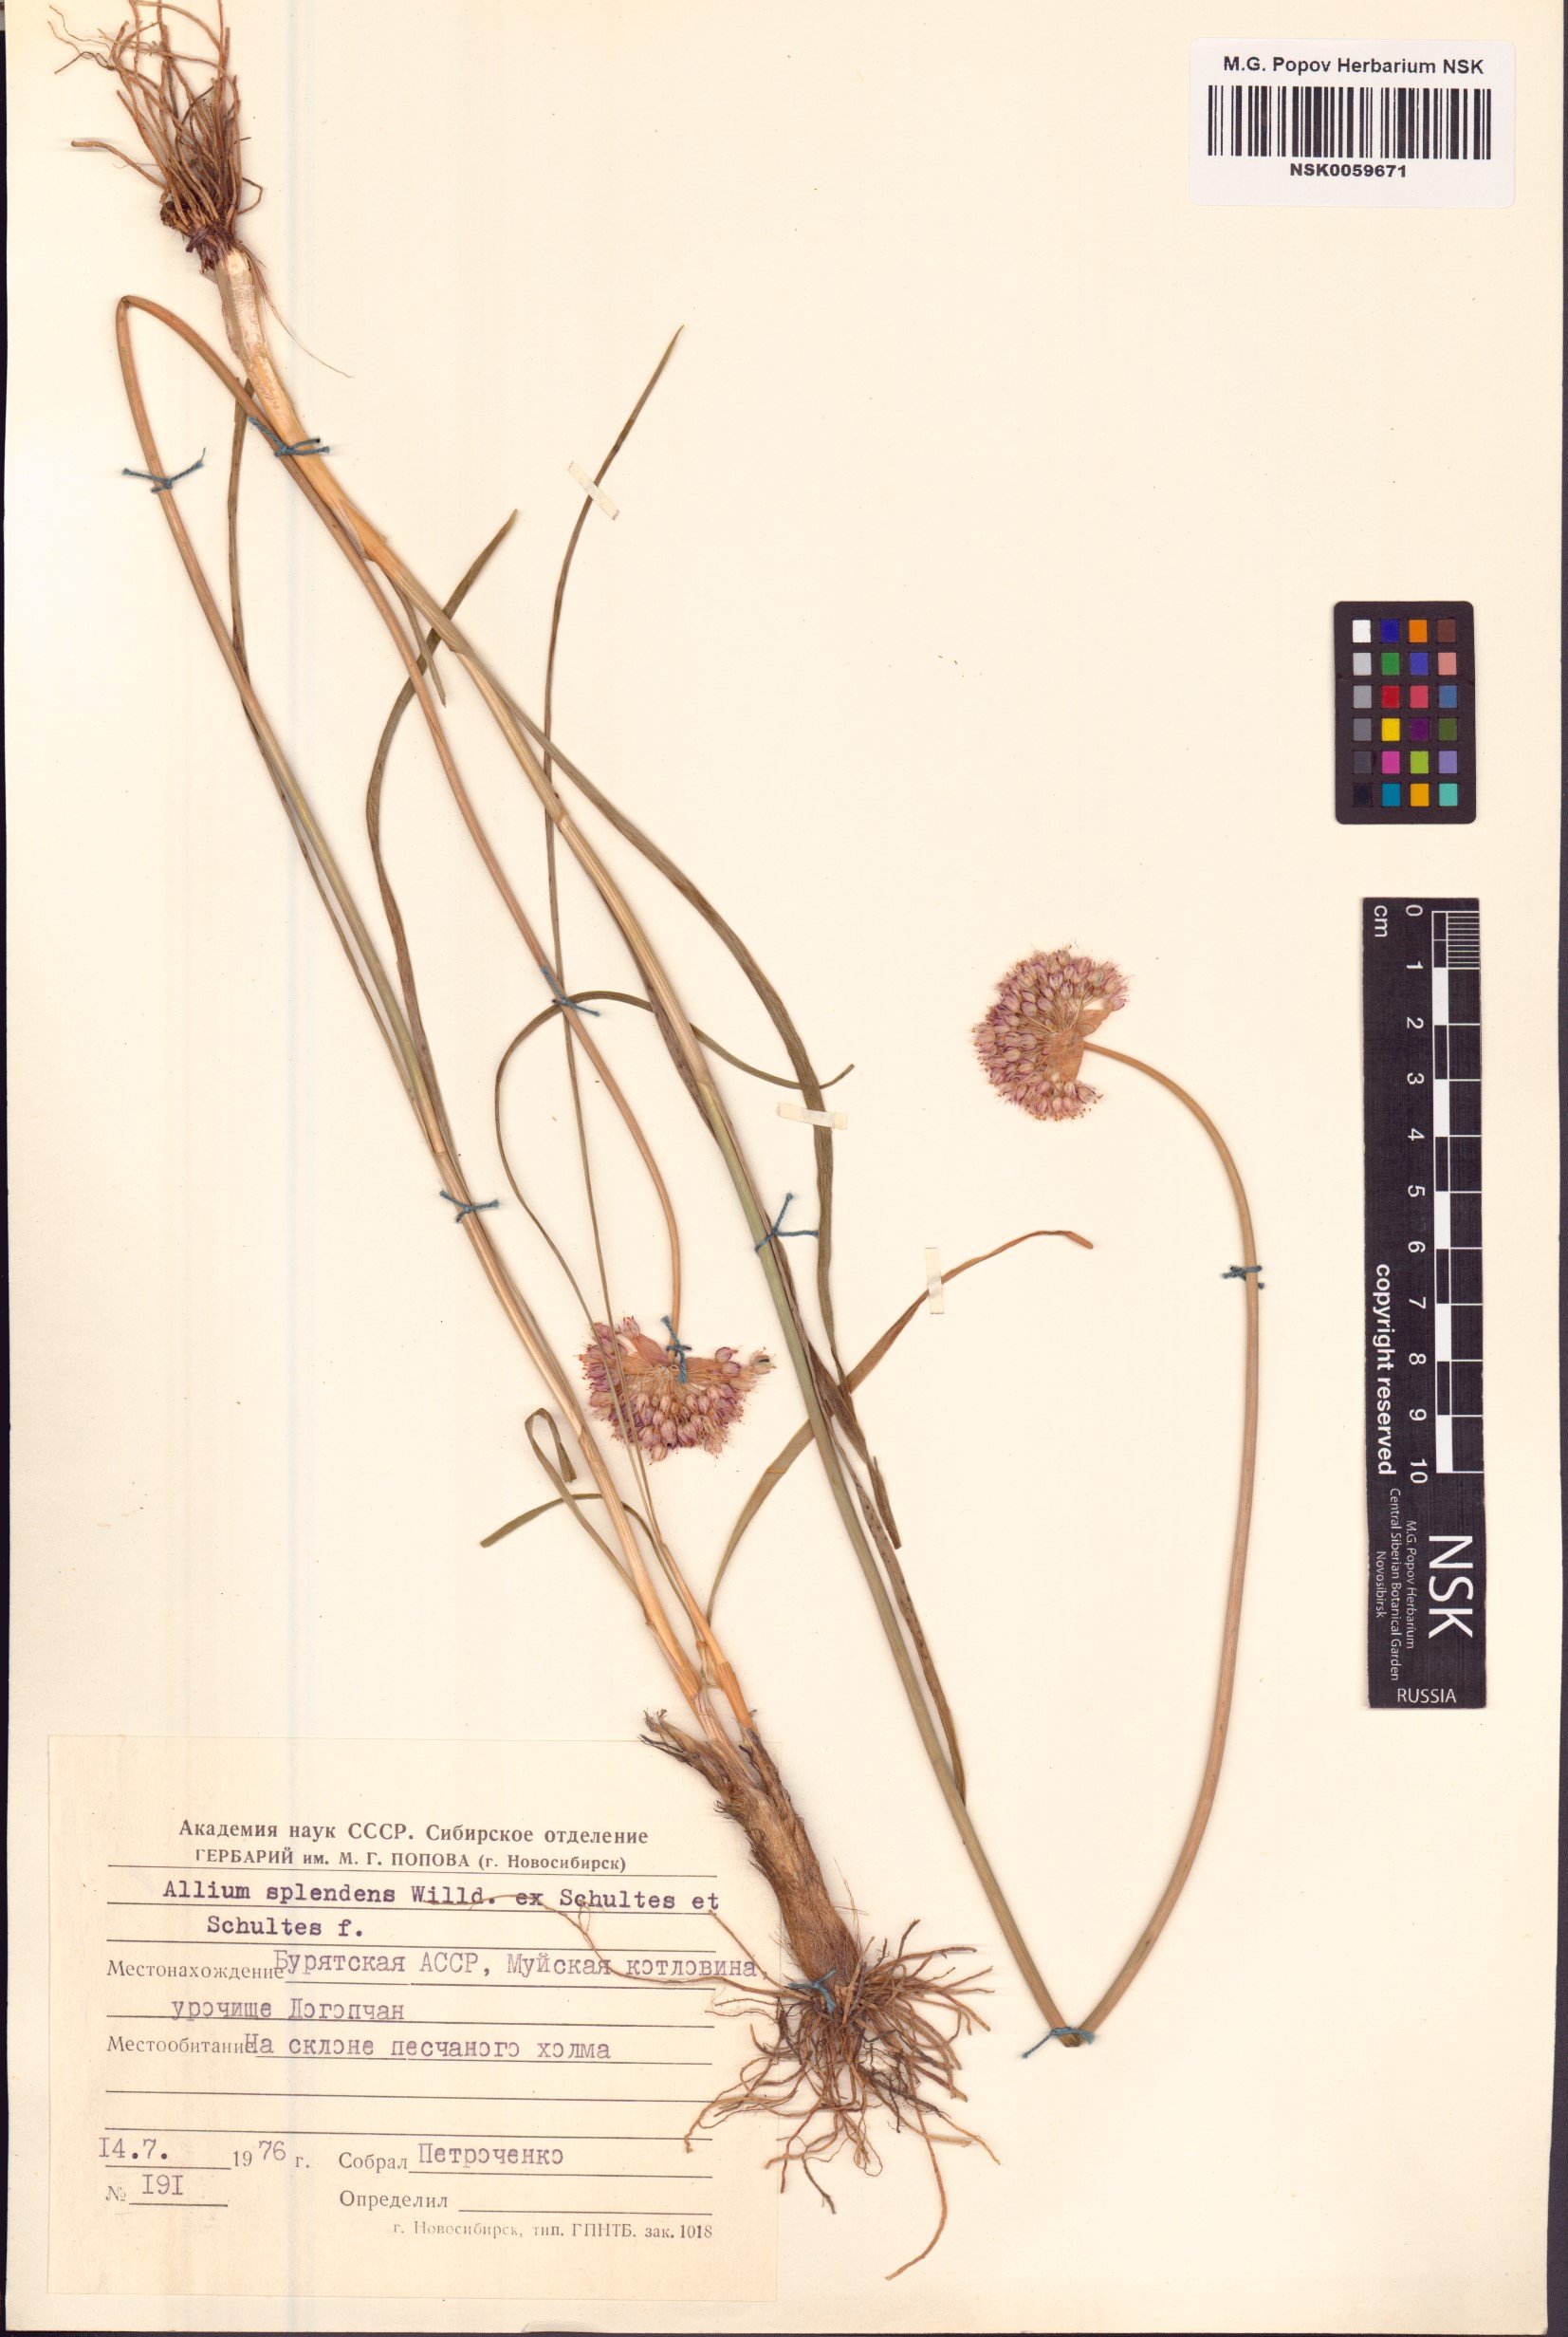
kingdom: Plantae
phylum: Tracheophyta
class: Liliopsida
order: Asparagales
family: Amaryllidaceae
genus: Allium
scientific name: Allium splendens
